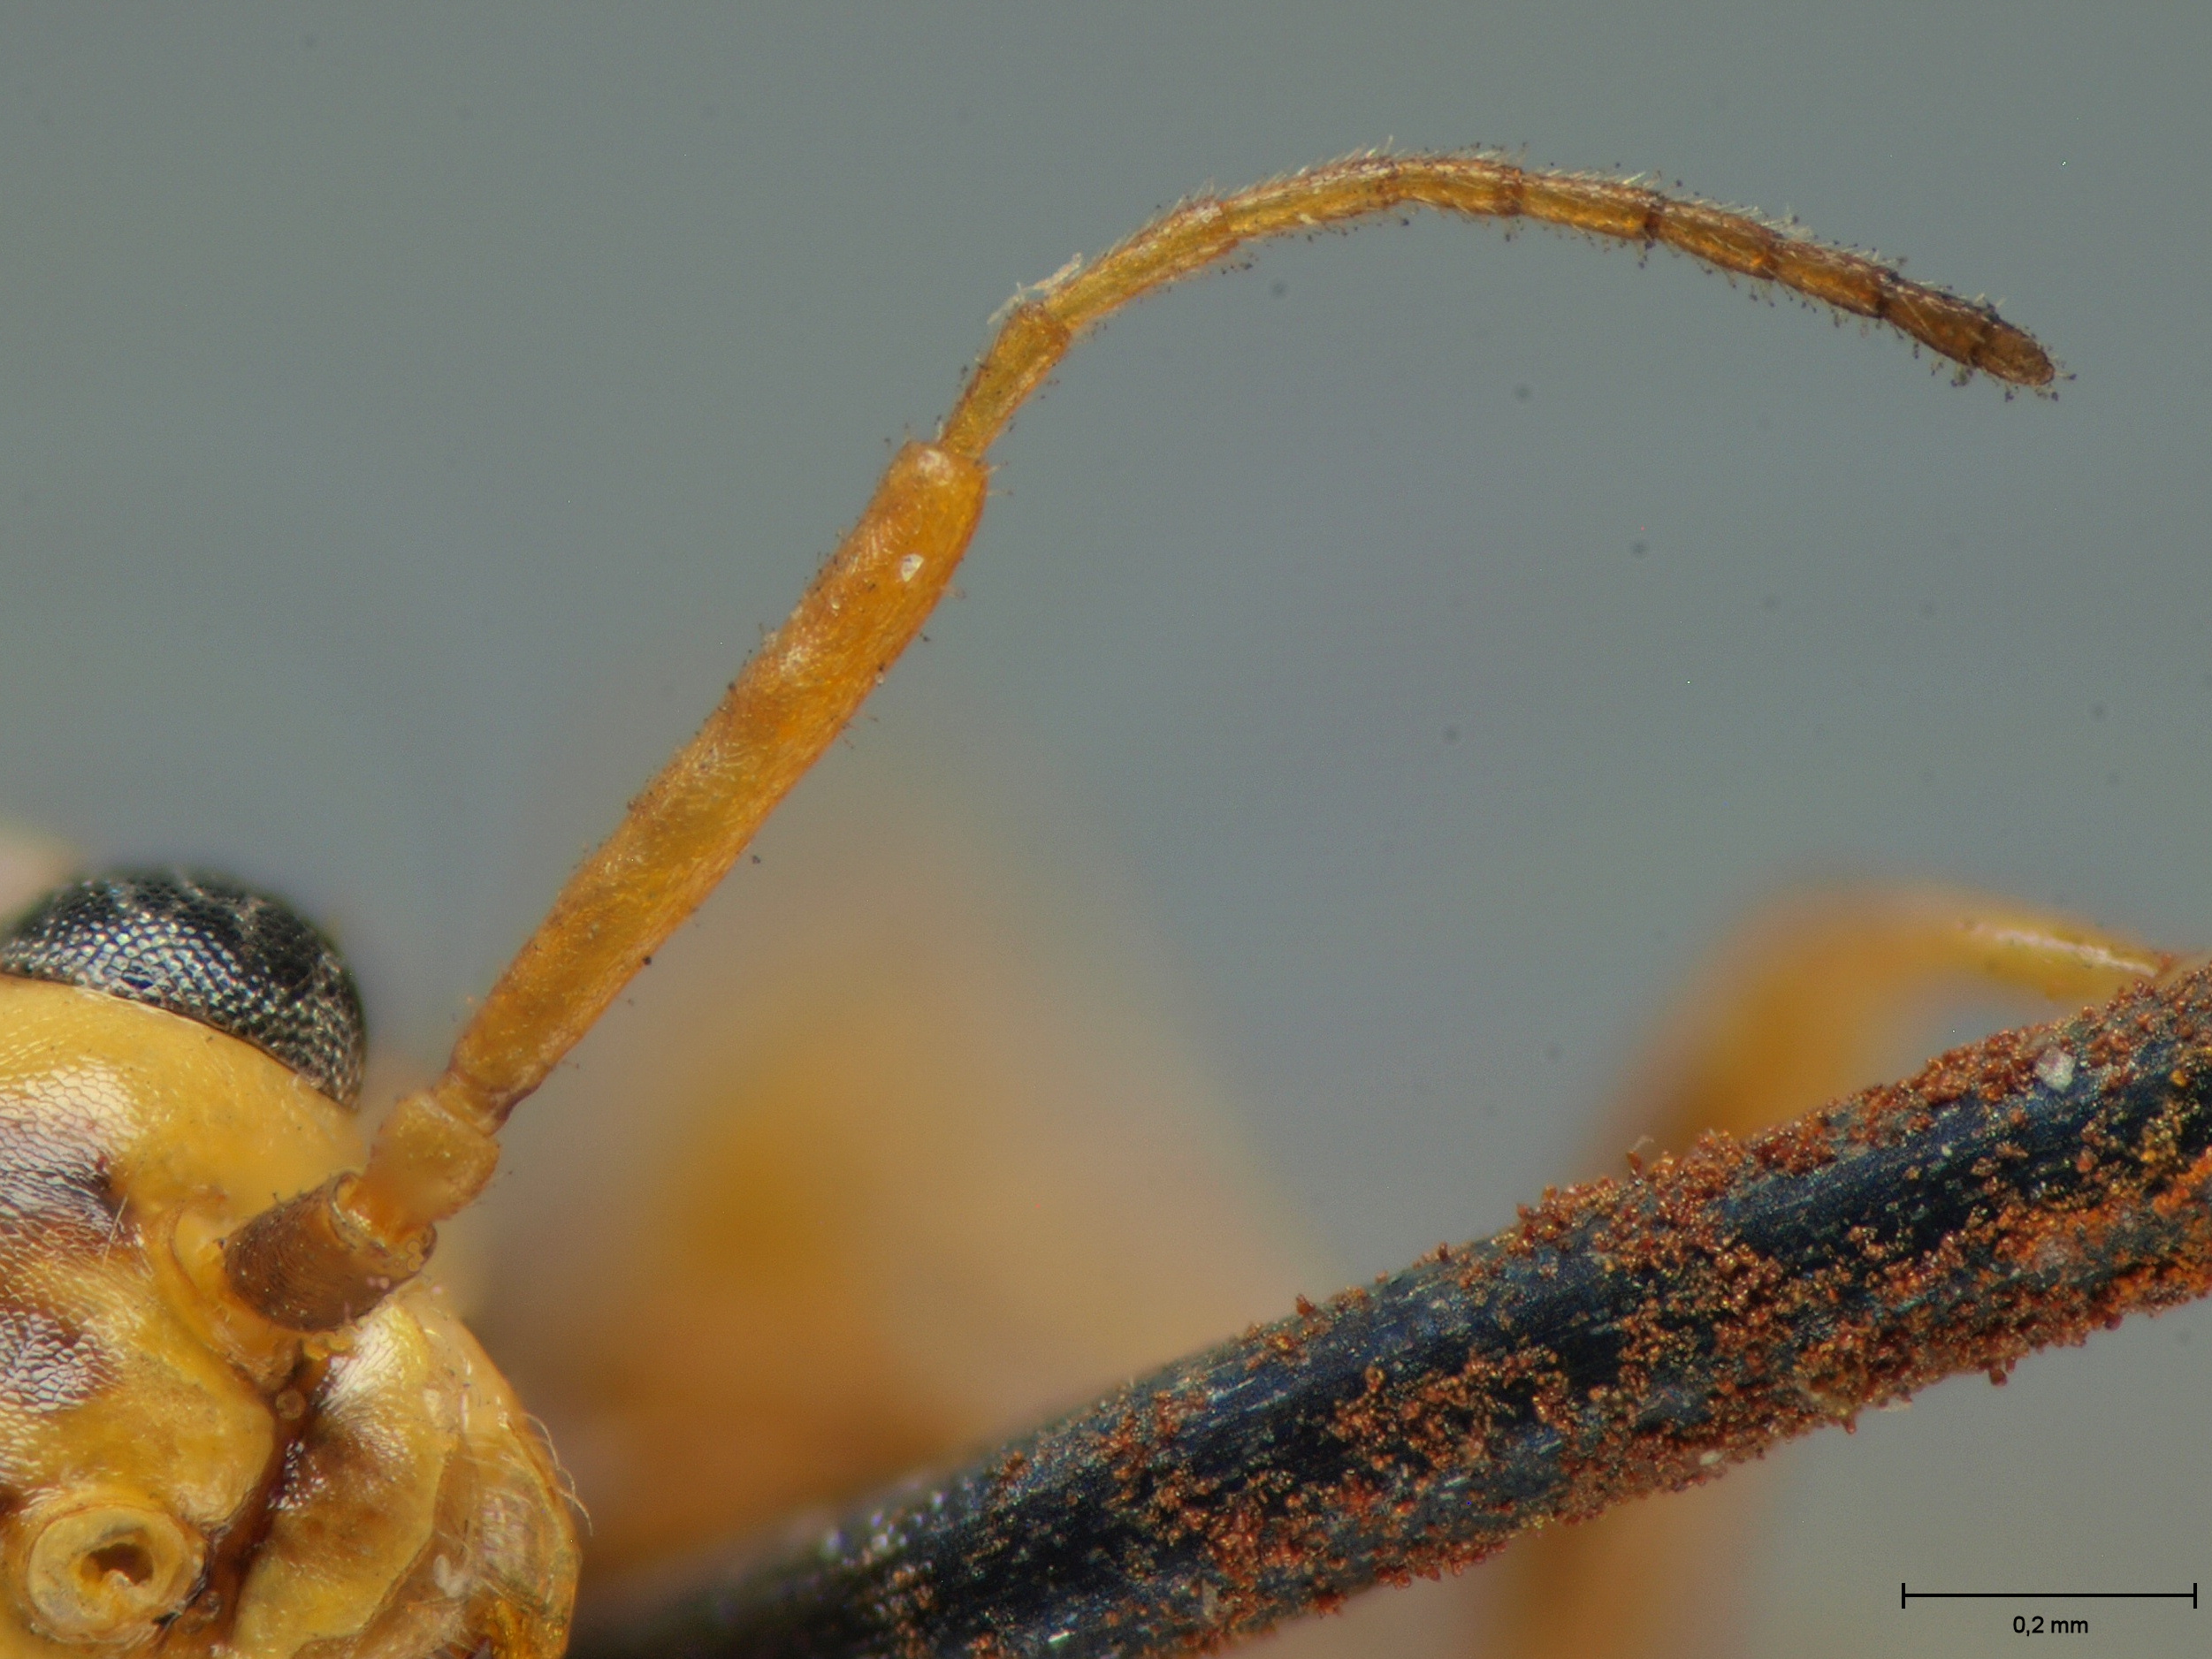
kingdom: Animalia
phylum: Arthropoda
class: Insecta
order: Hymenoptera
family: Xyelidae
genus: Xyela
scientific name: Xyela obscura
